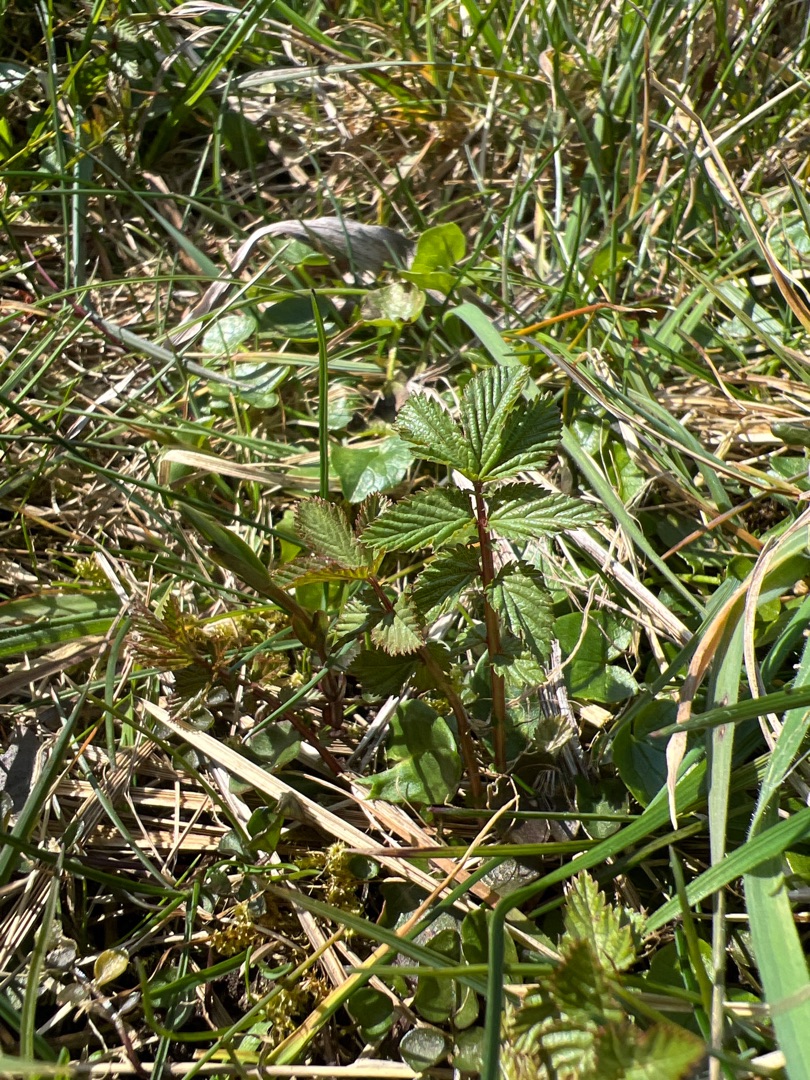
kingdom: Plantae
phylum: Tracheophyta
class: Magnoliopsida
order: Rosales
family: Rosaceae
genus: Filipendula
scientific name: Filipendula ulmaria
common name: Almindelig mjødurt
